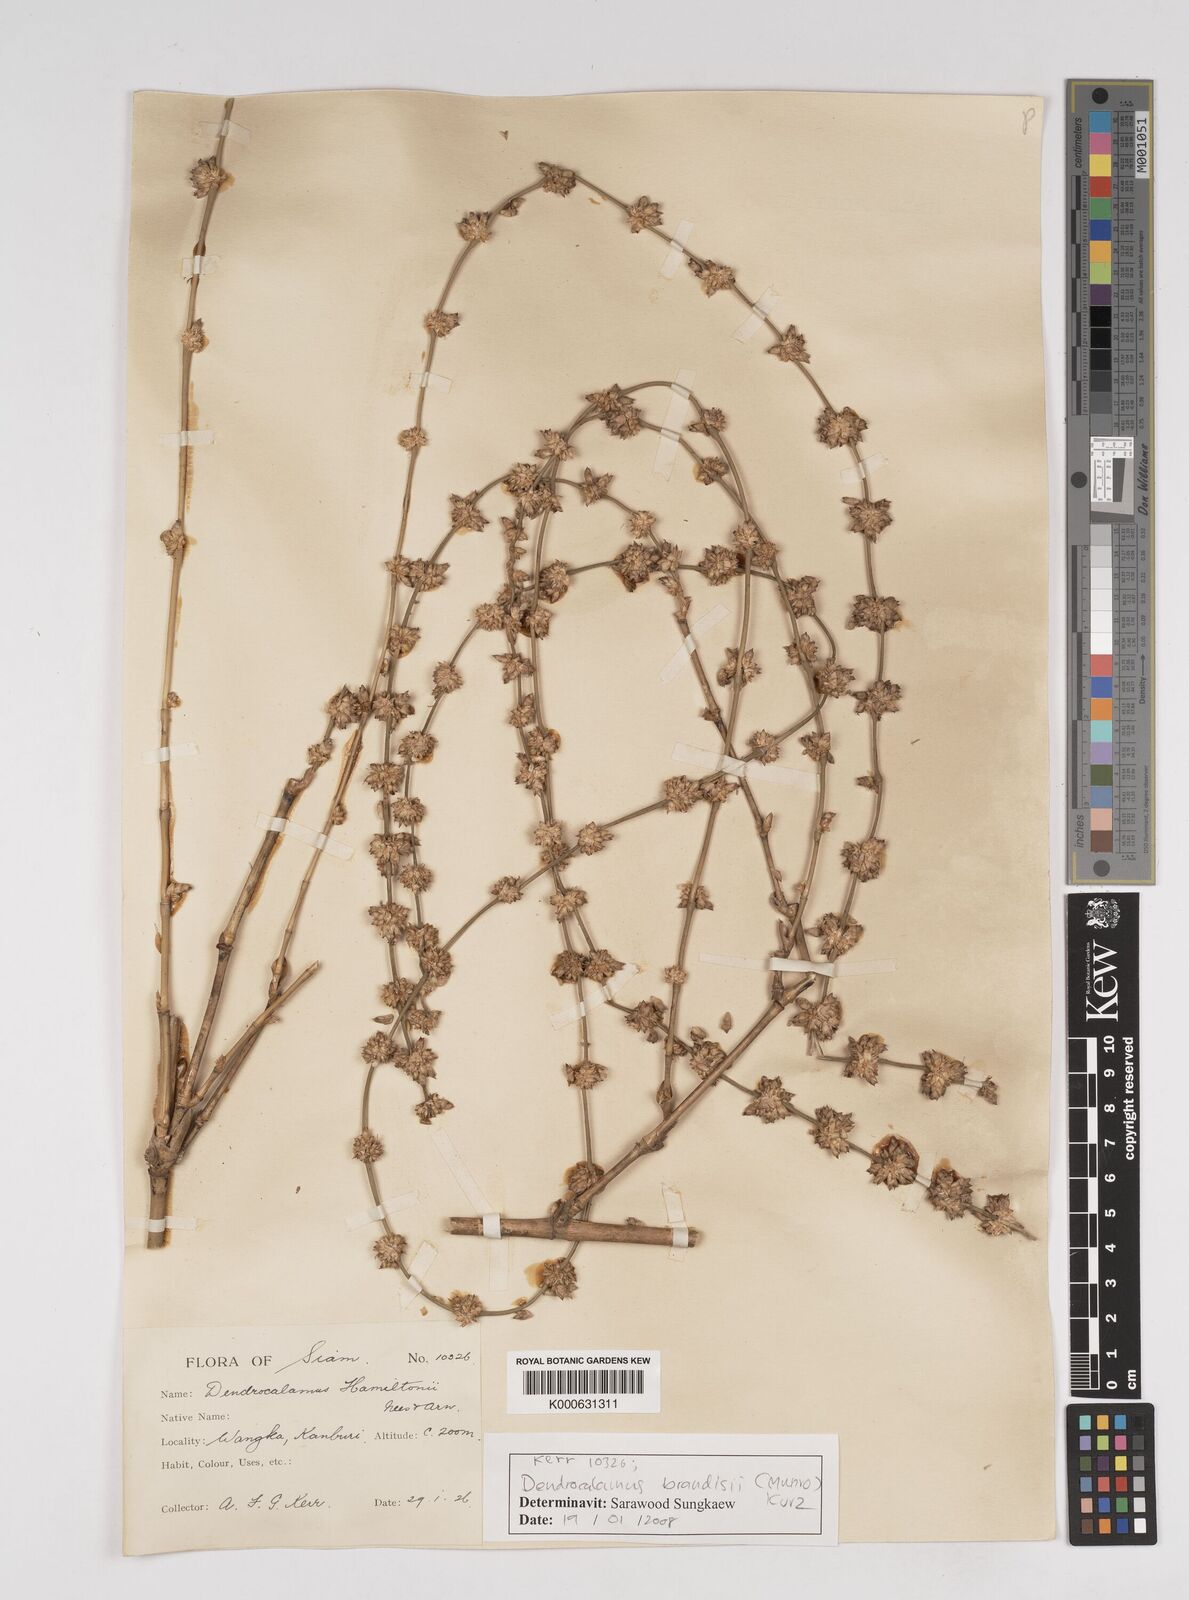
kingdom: Plantae
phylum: Tracheophyta
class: Liliopsida
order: Poales
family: Poaceae
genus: Dendrocalamus
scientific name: Dendrocalamus brandisii
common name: Velvetleaf bamboo
